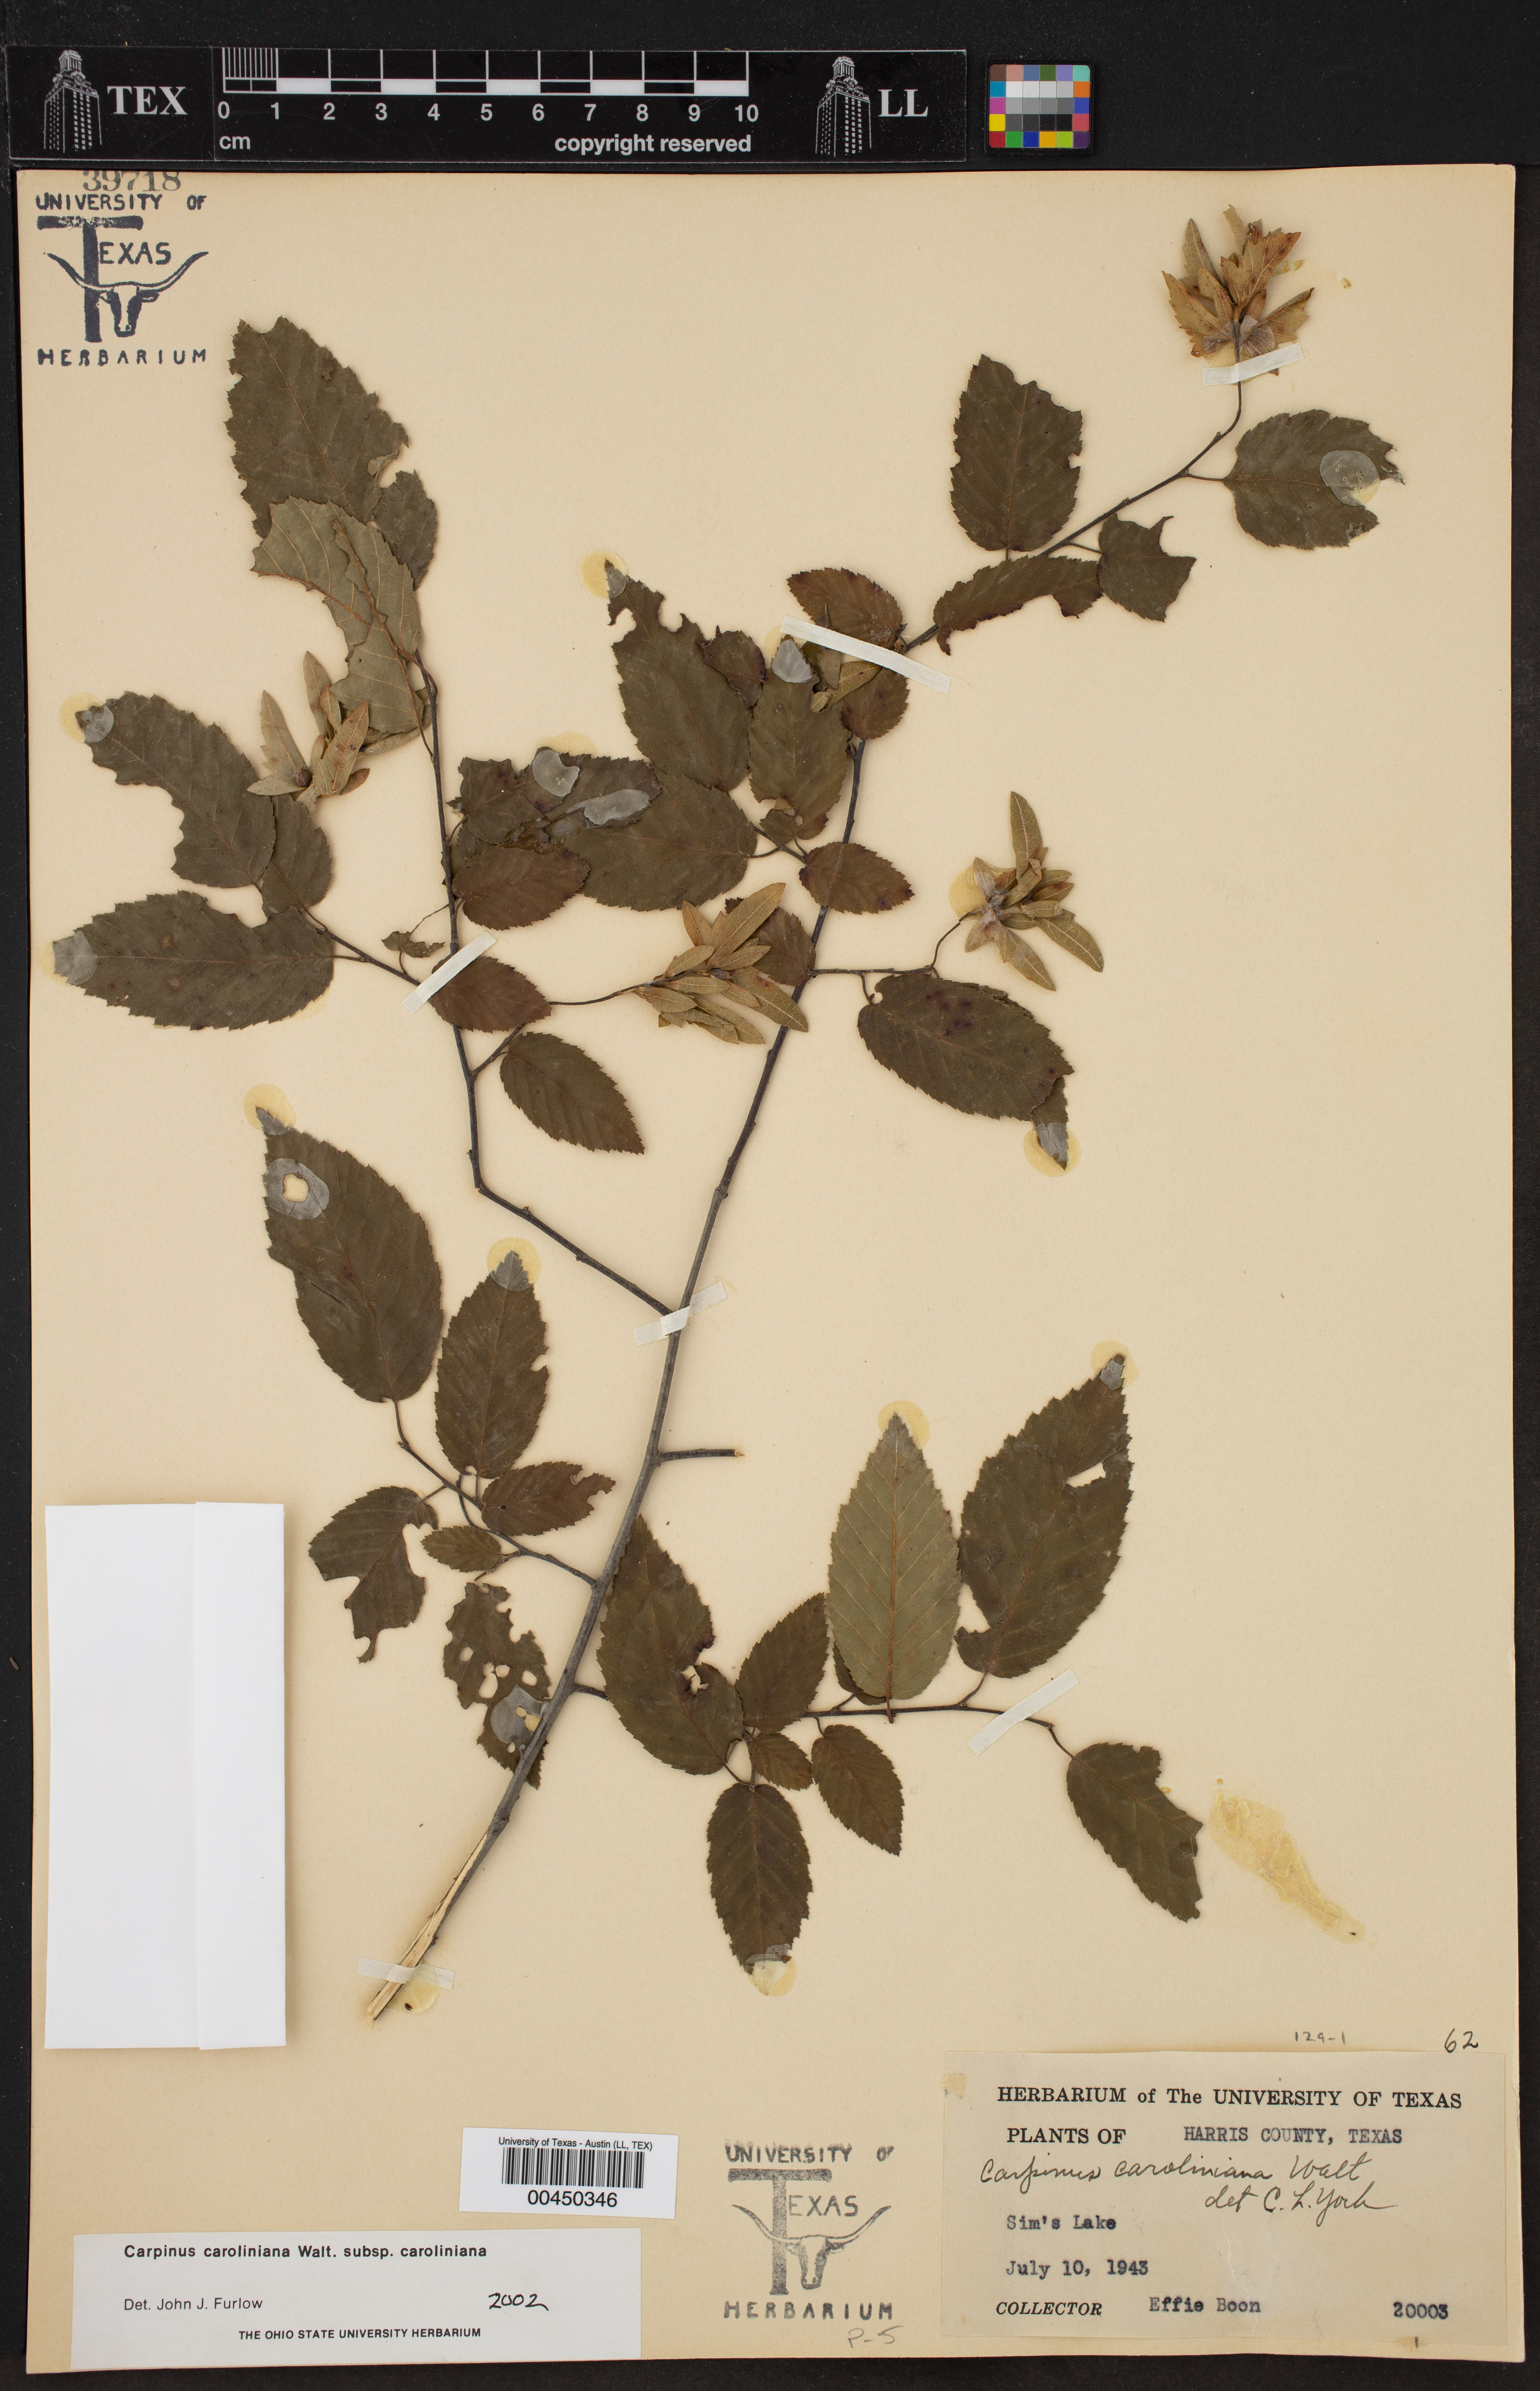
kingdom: Plantae
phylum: Tracheophyta
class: Magnoliopsida
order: Fagales
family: Betulaceae
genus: Carpinus
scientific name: Carpinus caroliniana
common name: American hornbeam
